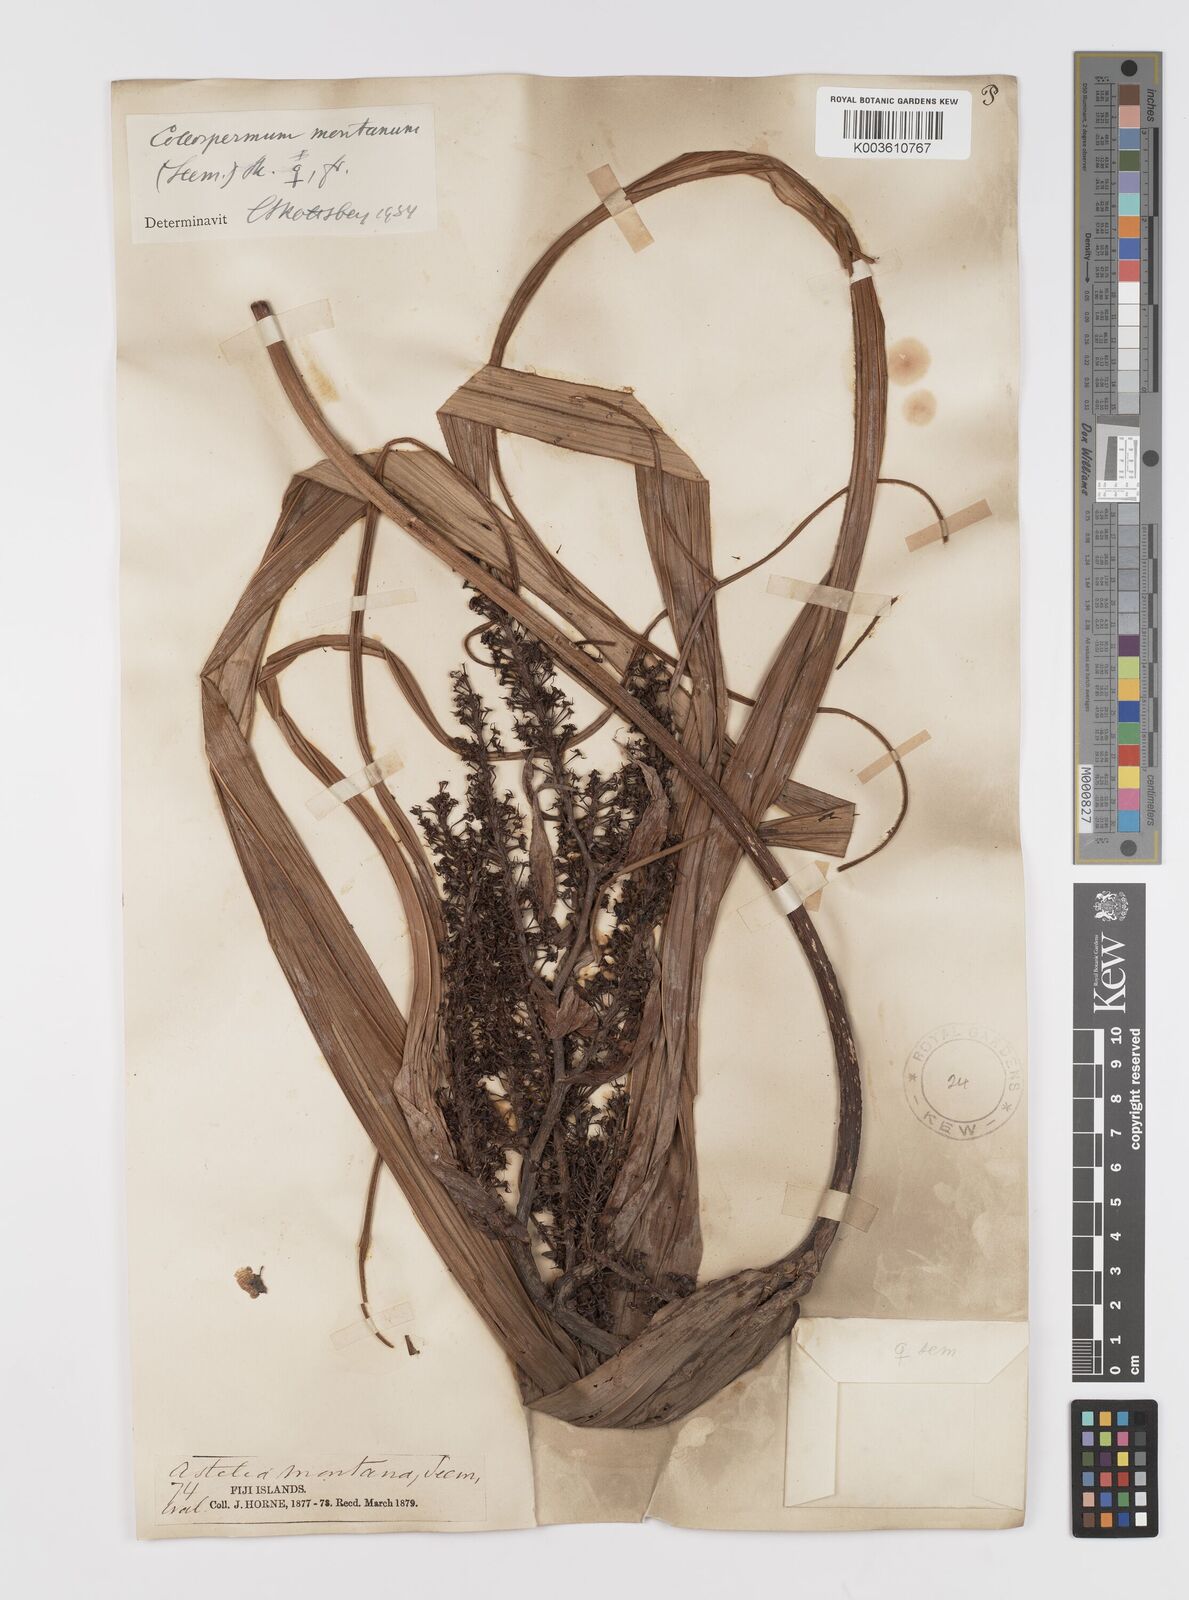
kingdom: Plantae
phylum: Tracheophyta
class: Liliopsida
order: Asparagales
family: Asteliaceae
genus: Astelia
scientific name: Astelia montana
